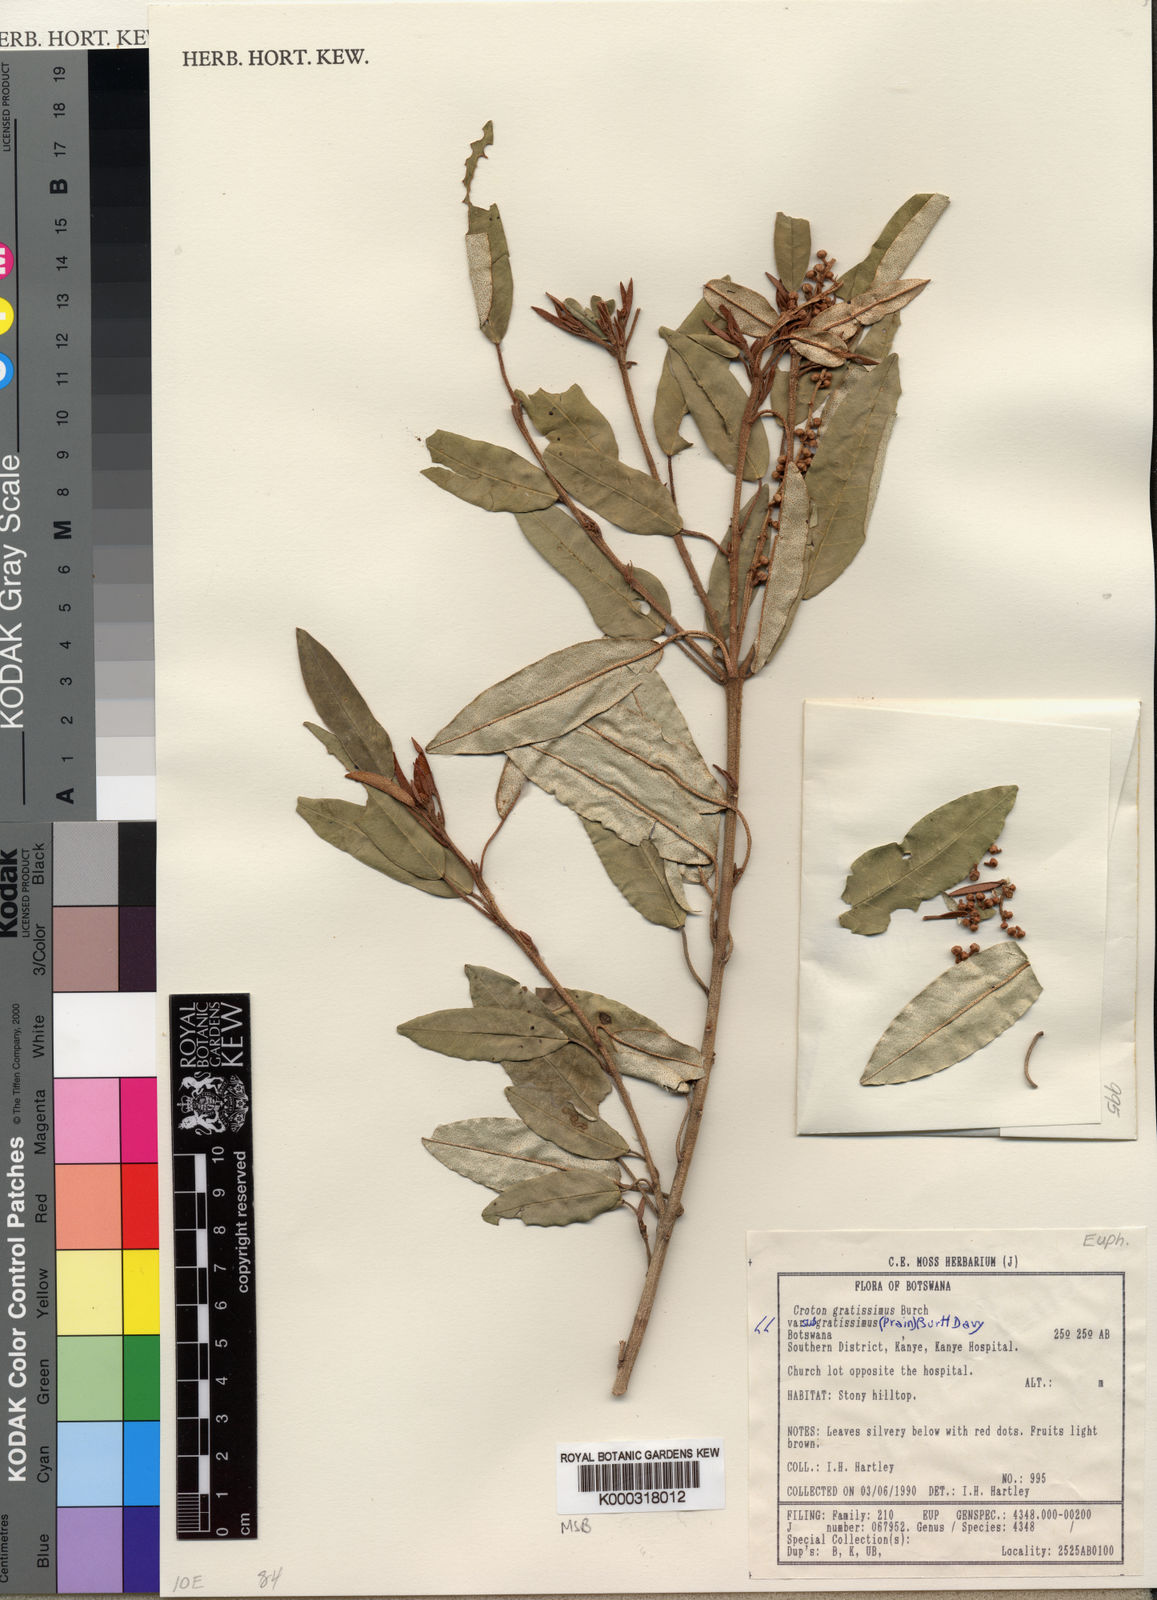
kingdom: Plantae
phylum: Tracheophyta
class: Magnoliopsida
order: Malpighiales
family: Euphorbiaceae
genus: Croton
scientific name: Croton gratissimus
